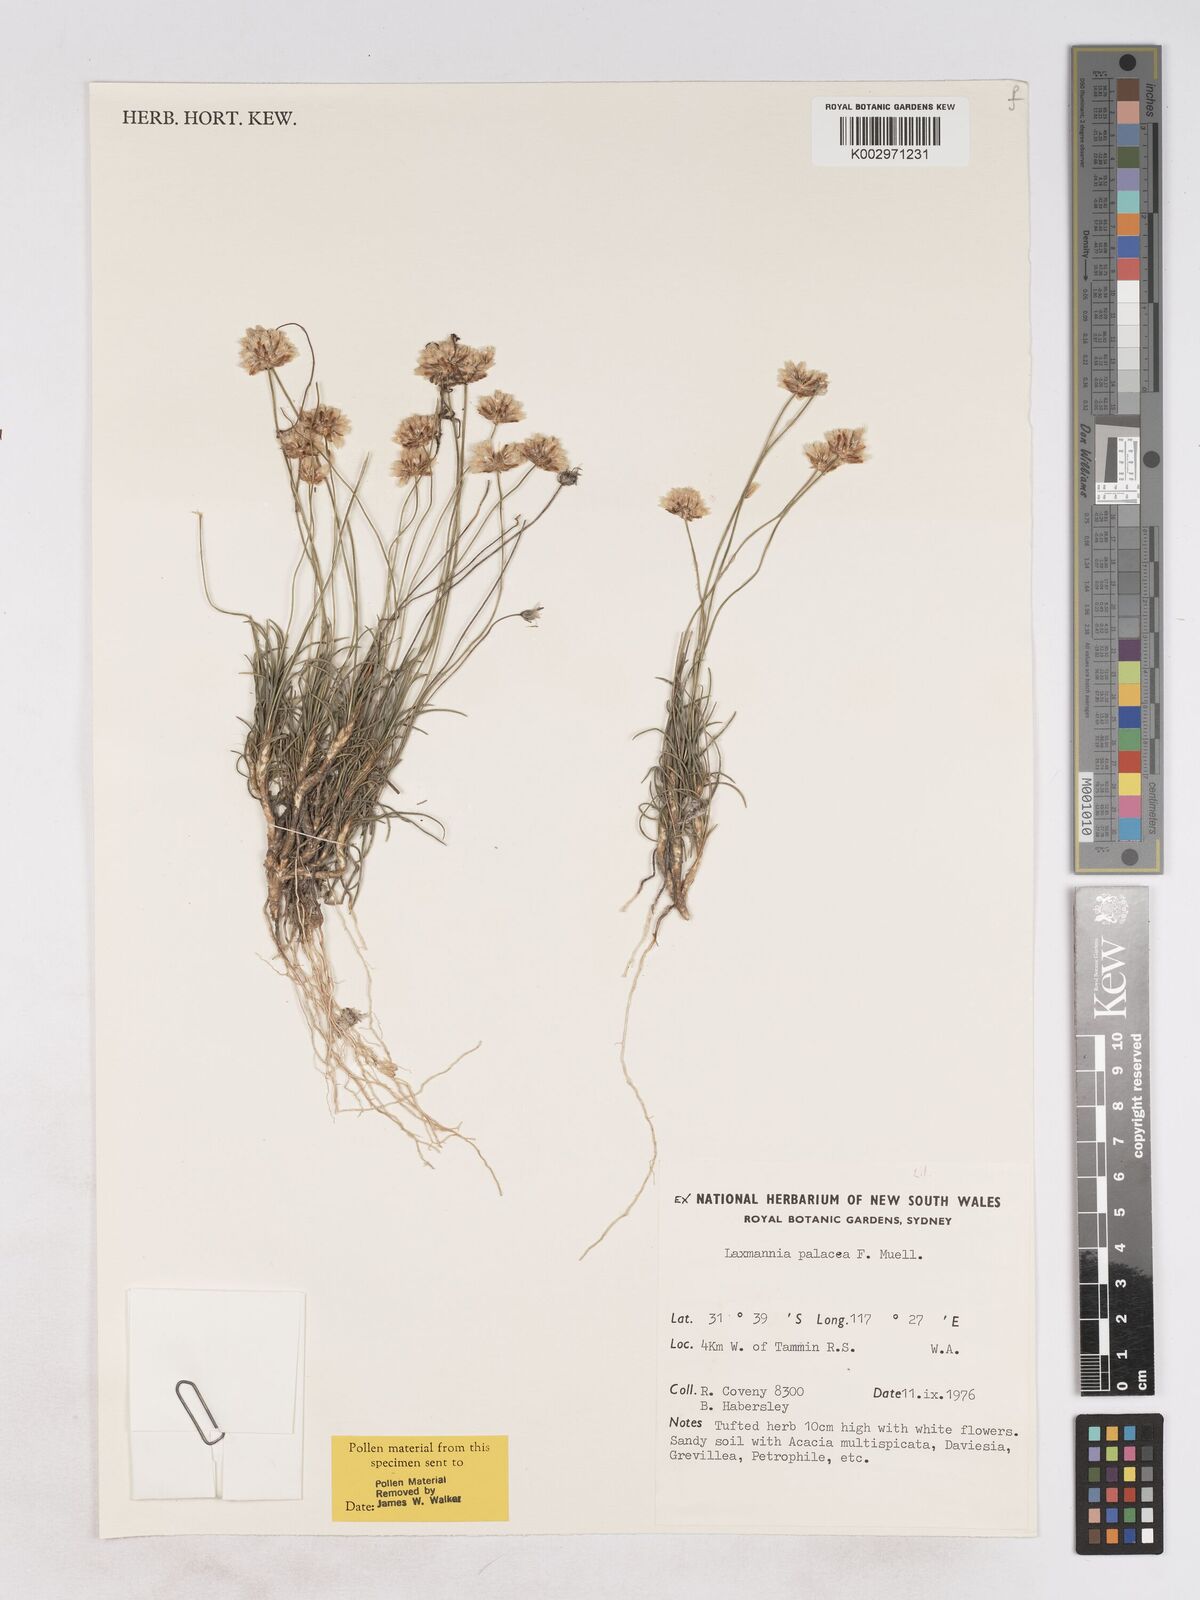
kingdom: Plantae
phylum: Tracheophyta
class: Liliopsida
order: Asparagales
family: Asparagaceae
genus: Laxmannia
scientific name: Laxmannia paleacea
